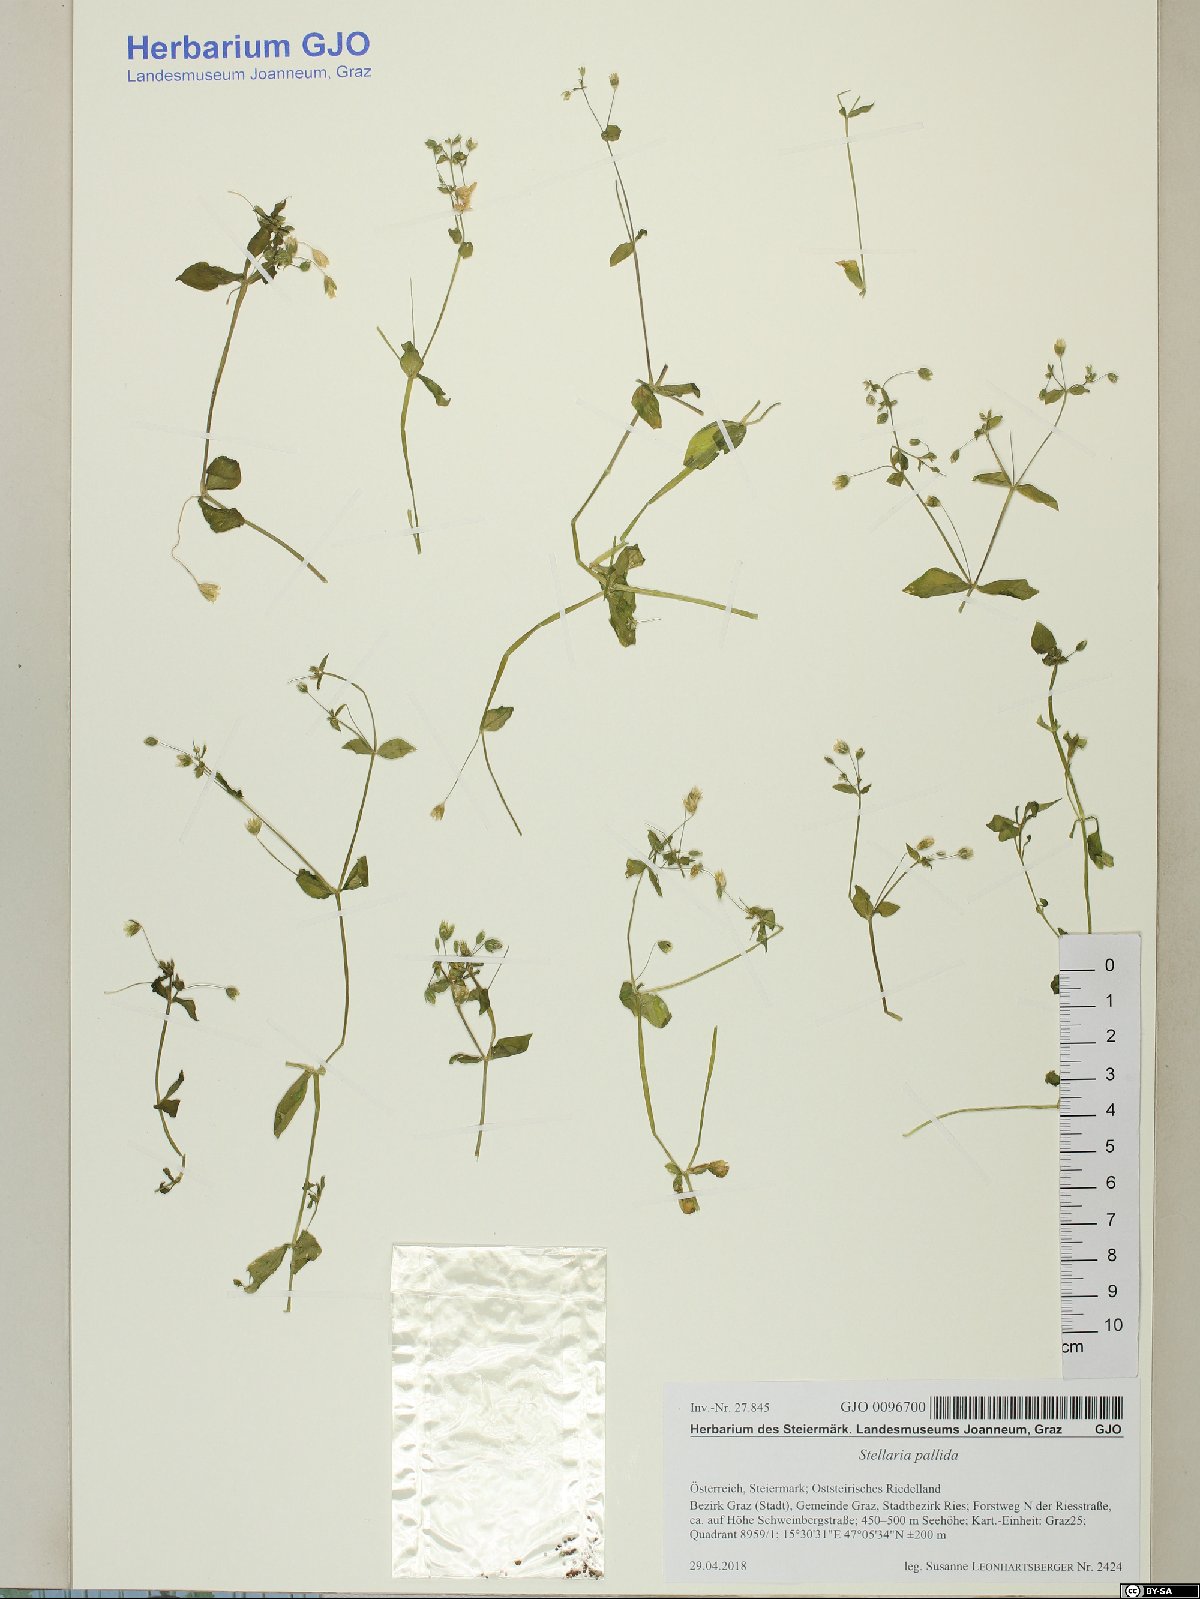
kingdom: Plantae
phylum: Tracheophyta
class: Magnoliopsida
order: Caryophyllales
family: Caryophyllaceae
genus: Stellaria
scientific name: Stellaria apetala
